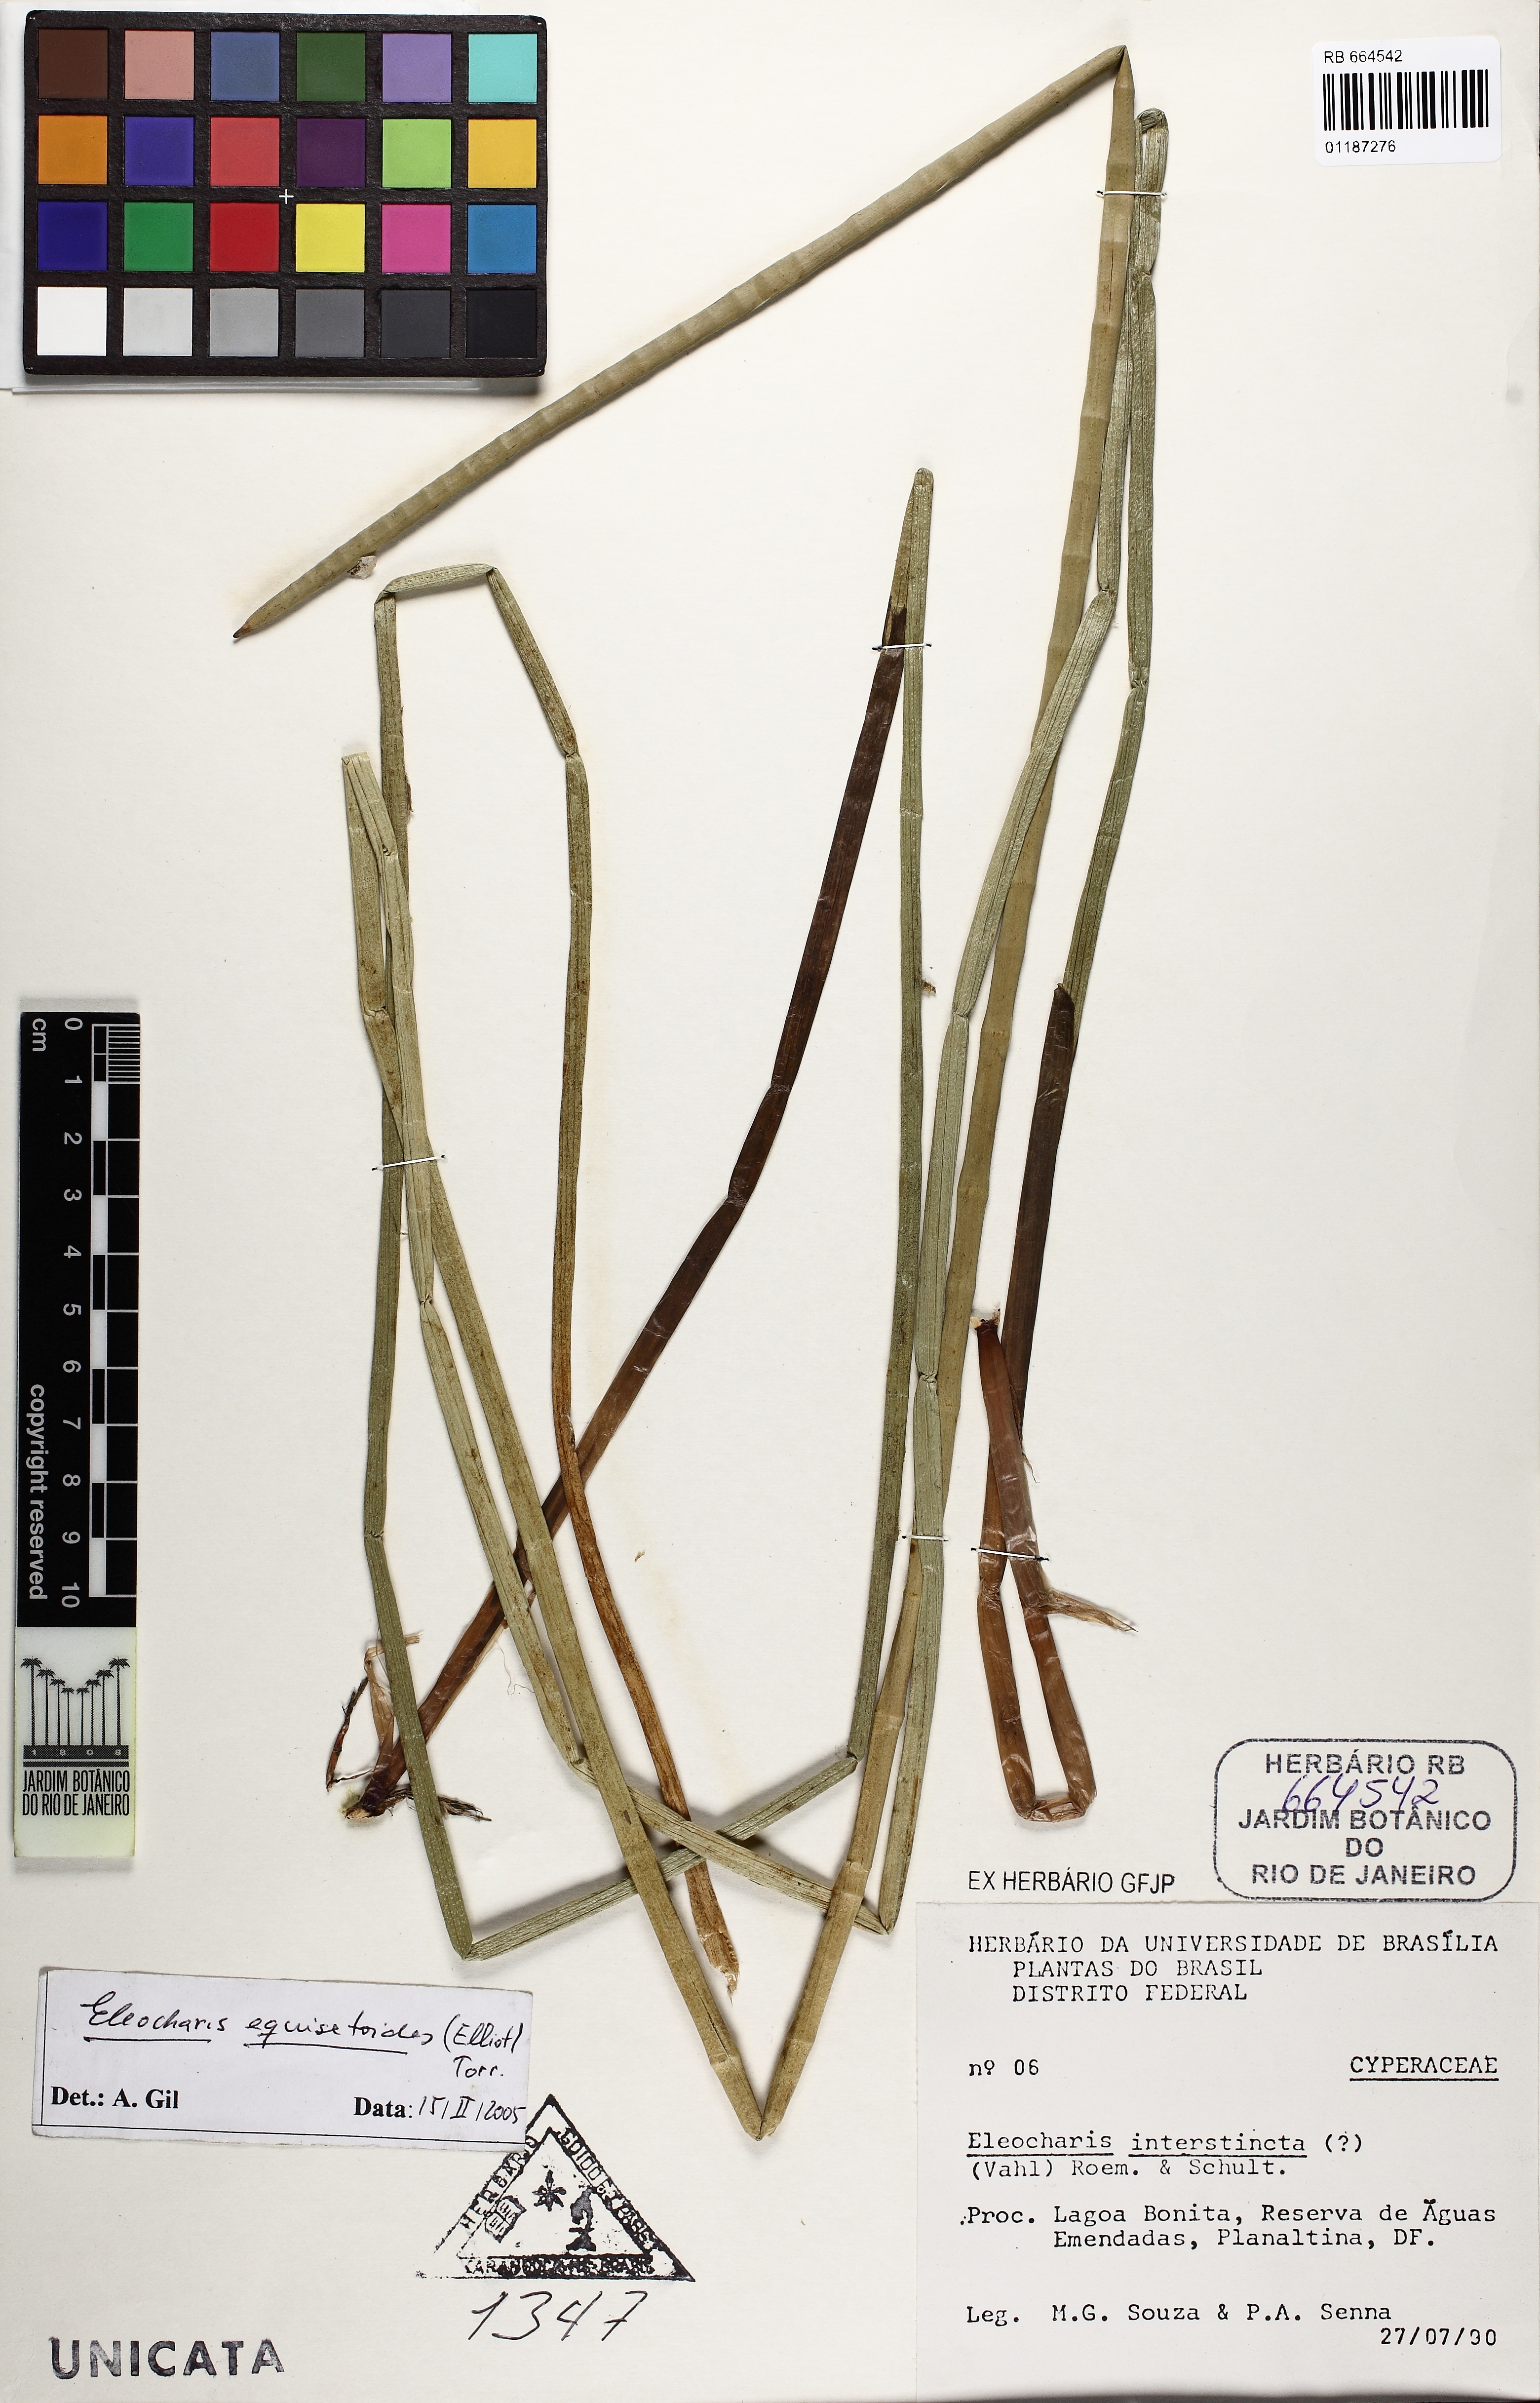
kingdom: Plantae
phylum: Tracheophyta
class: Liliopsida
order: Poales
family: Cyperaceae
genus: Eleocharis
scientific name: Eleocharis equisetoides
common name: Horsetail spike-rush
